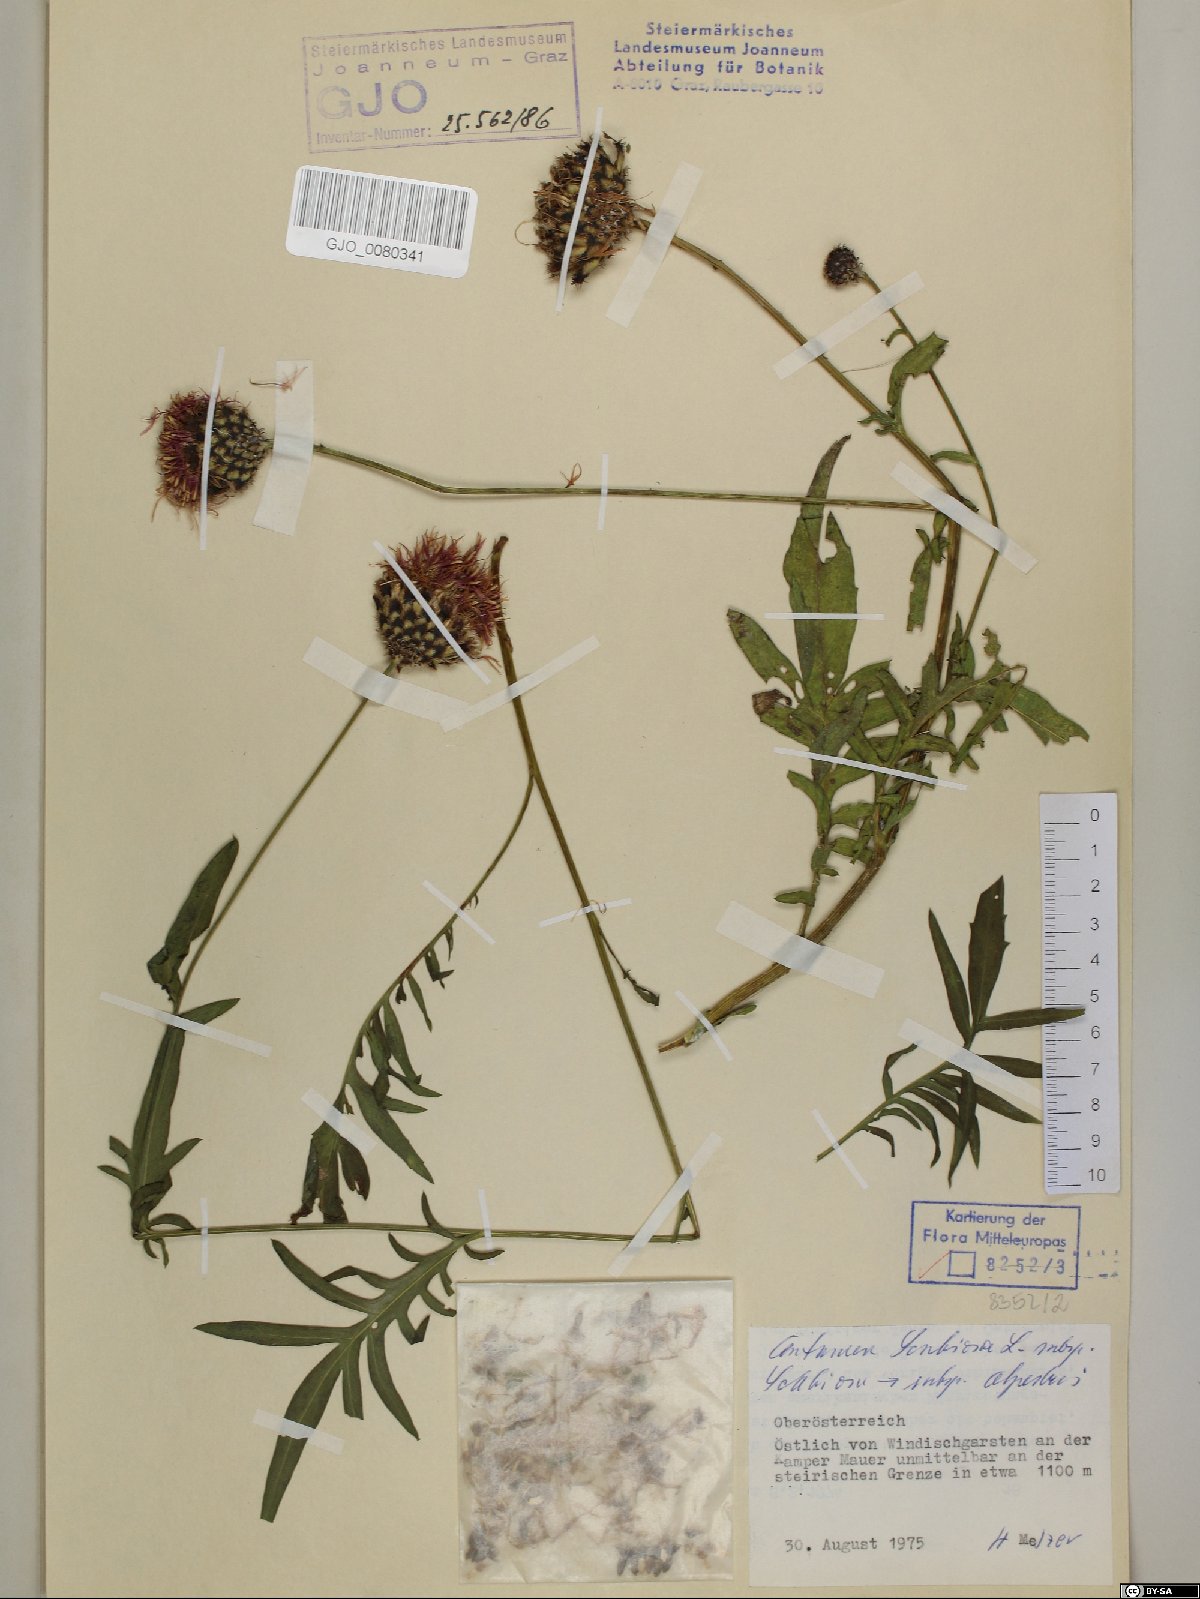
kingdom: Plantae
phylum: Tracheophyta
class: Magnoliopsida
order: Asterales
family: Asteraceae
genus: Centaurea
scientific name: Centaurea scabiosa
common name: Greater knapweed
